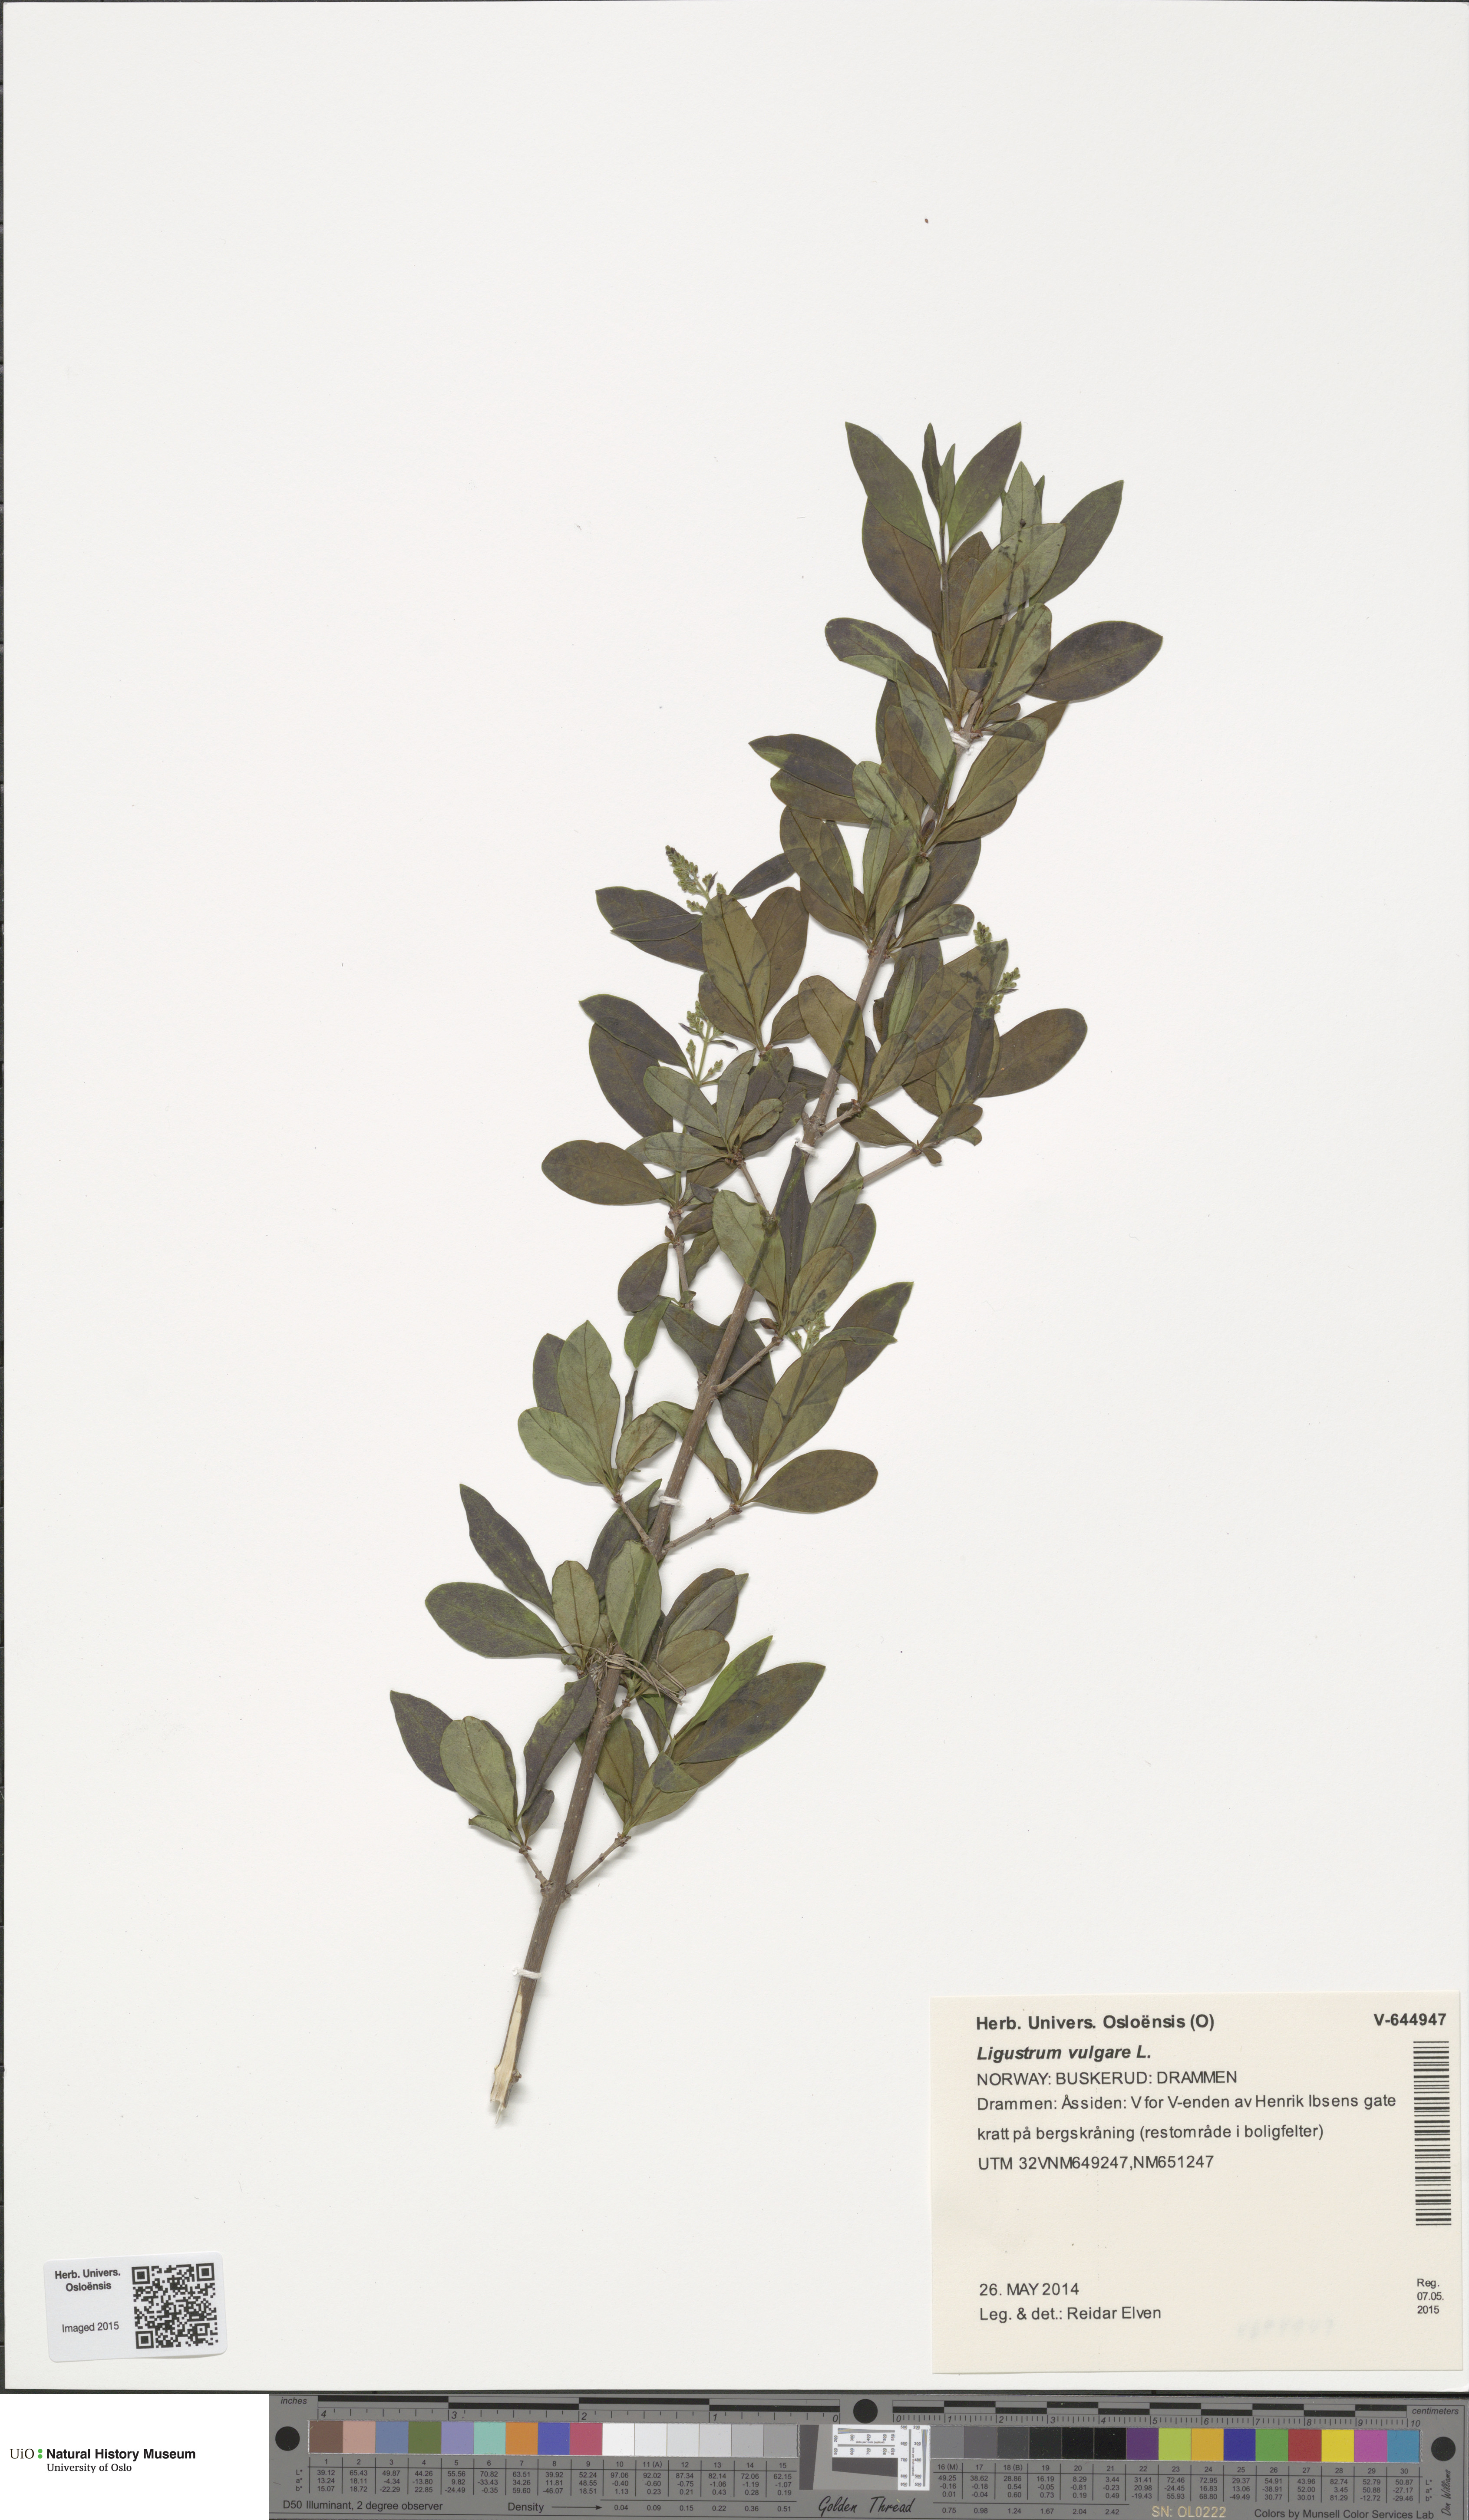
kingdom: Plantae
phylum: Tracheophyta
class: Magnoliopsida
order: Lamiales
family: Oleaceae
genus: Ligustrum
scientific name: Ligustrum vulgare
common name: Wild privet
